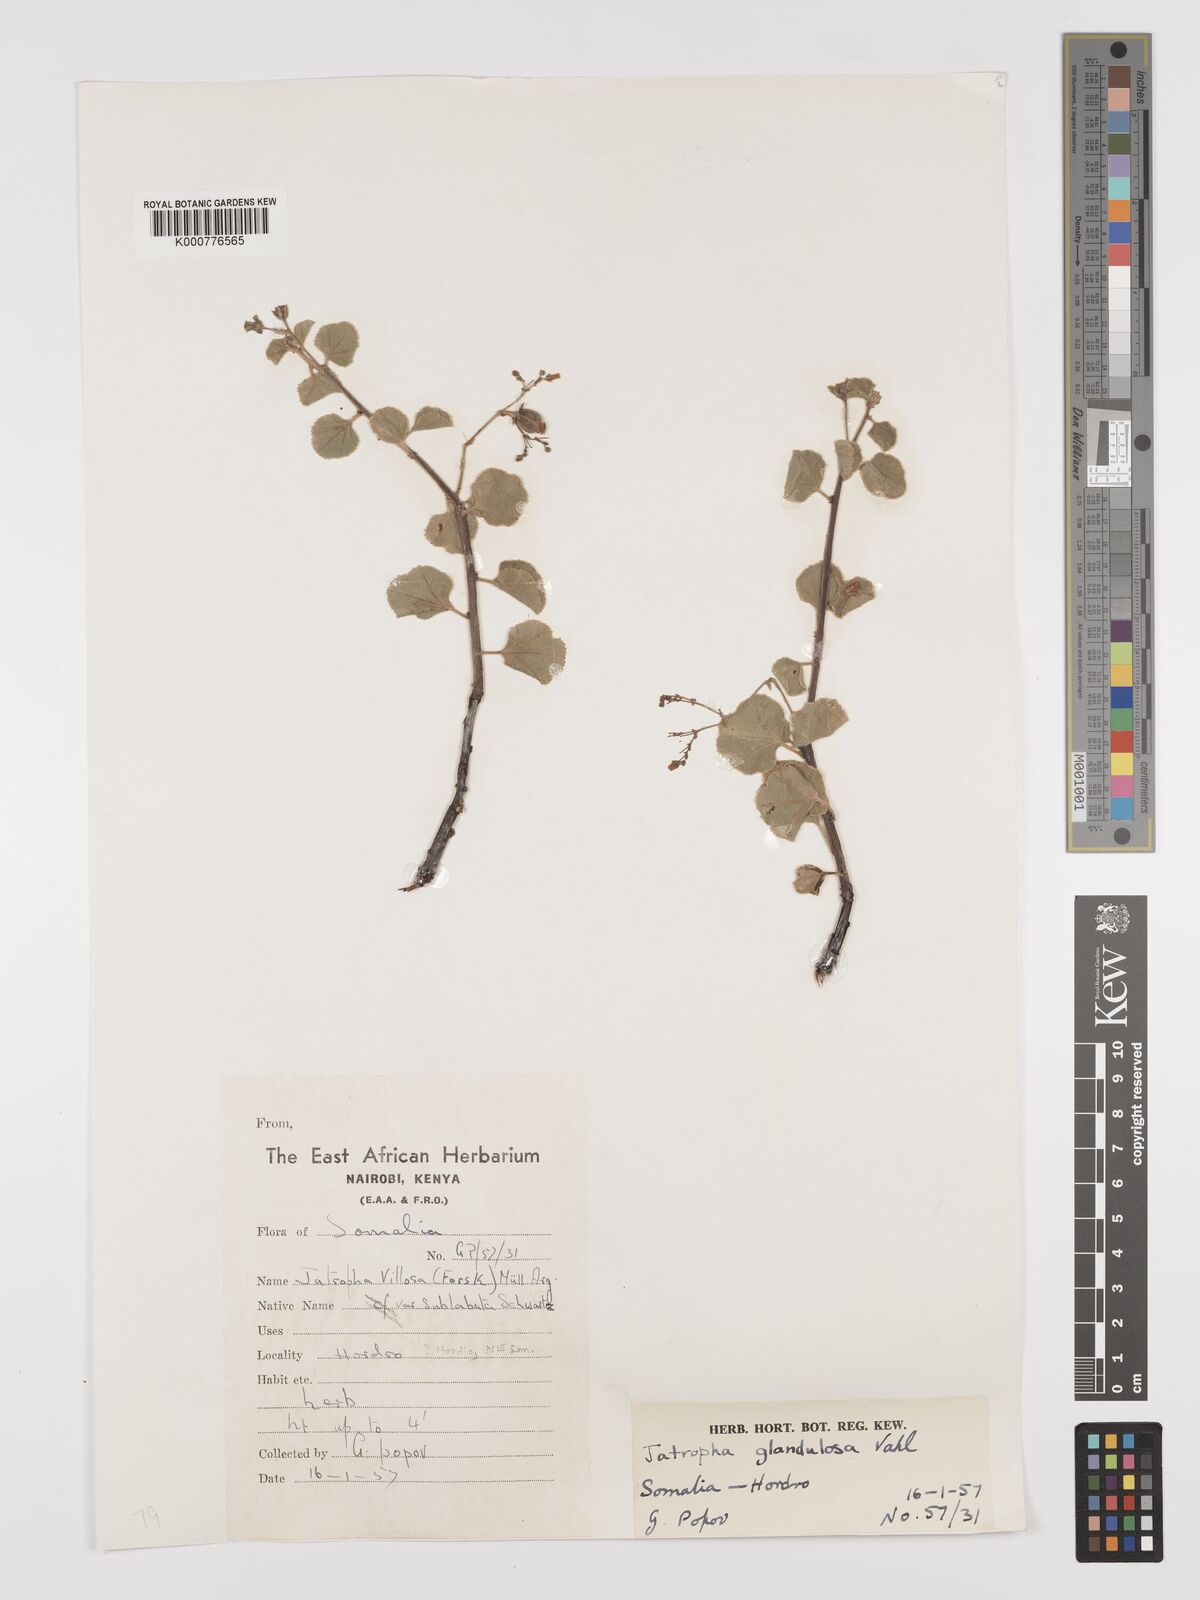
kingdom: Plantae
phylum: Tracheophyta
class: Magnoliopsida
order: Malpighiales
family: Euphorbiaceae
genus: Jatropha
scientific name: Jatropha pelargoniifolia
